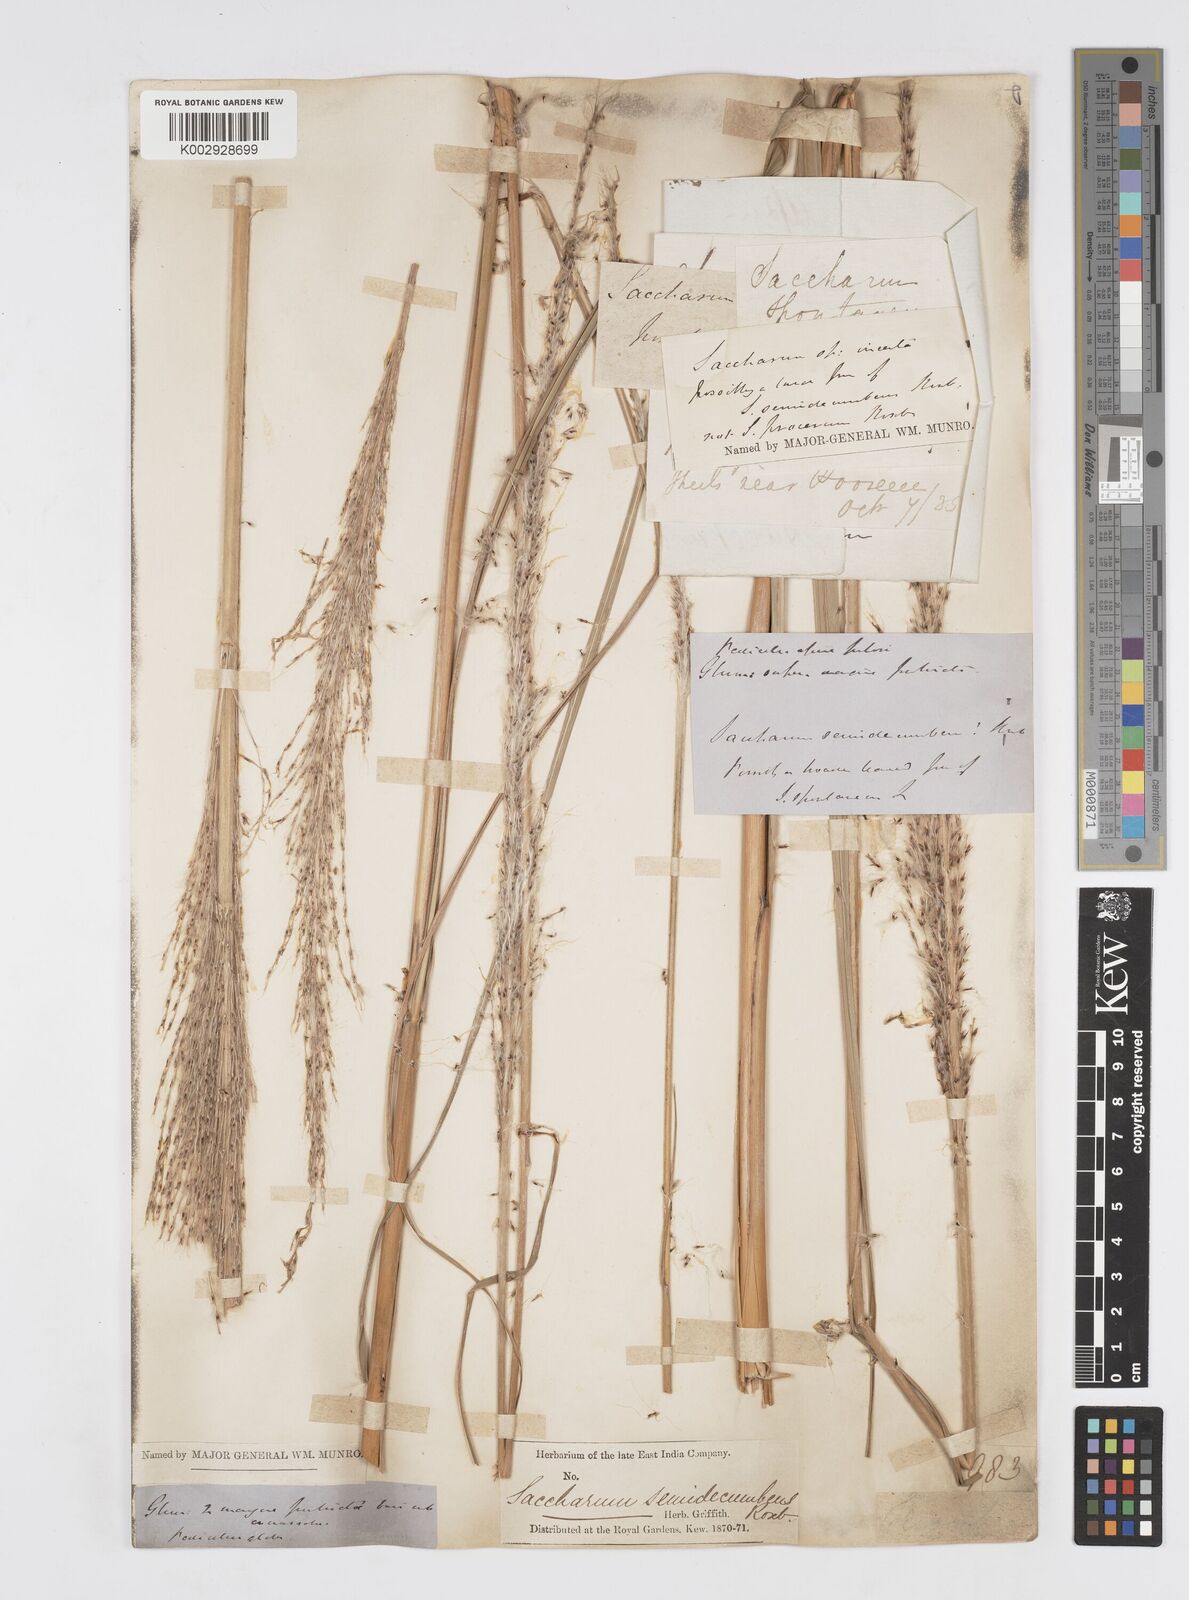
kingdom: Plantae
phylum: Tracheophyta
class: Liliopsida
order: Poales
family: Poaceae
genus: Saccharum
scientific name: Saccharum spontaneum
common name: Wild sugarcane
